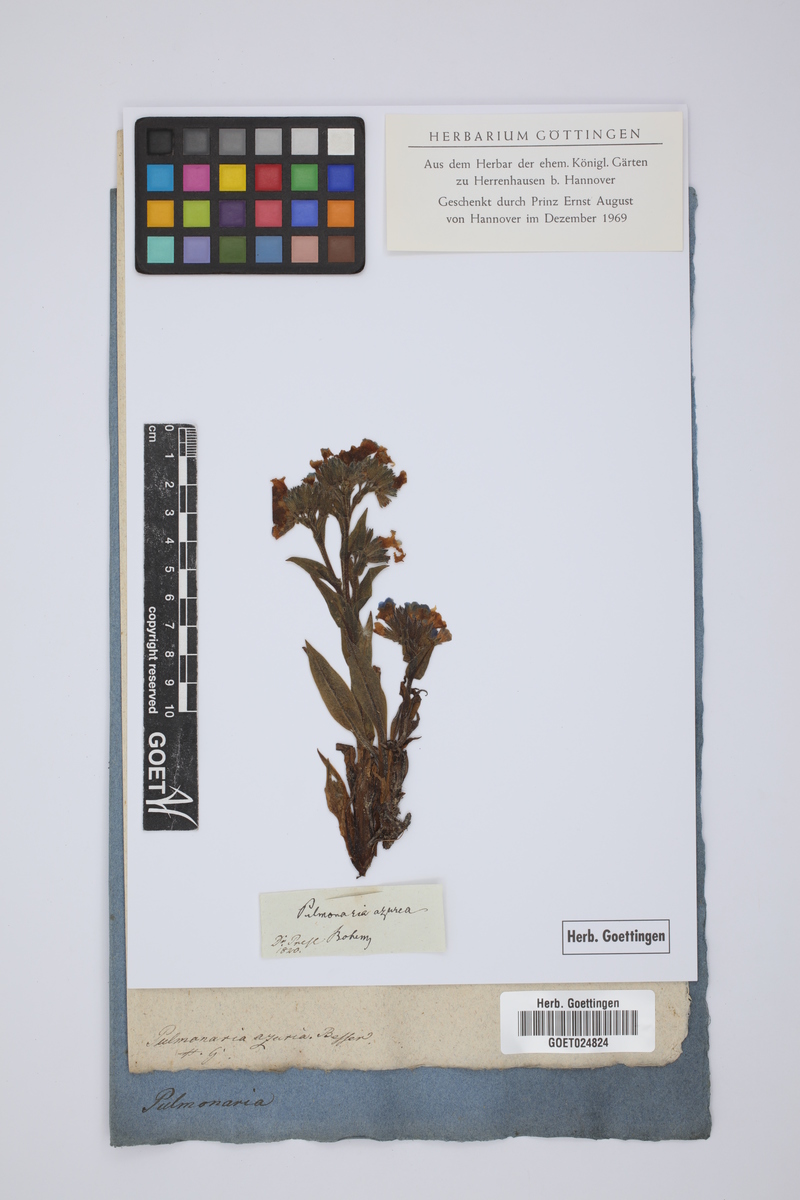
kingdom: Plantae
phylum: Tracheophyta
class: Magnoliopsida
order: Boraginales
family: Boraginaceae
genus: Pulmonaria
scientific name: Pulmonaria angustifolia
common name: Blue cowslip
